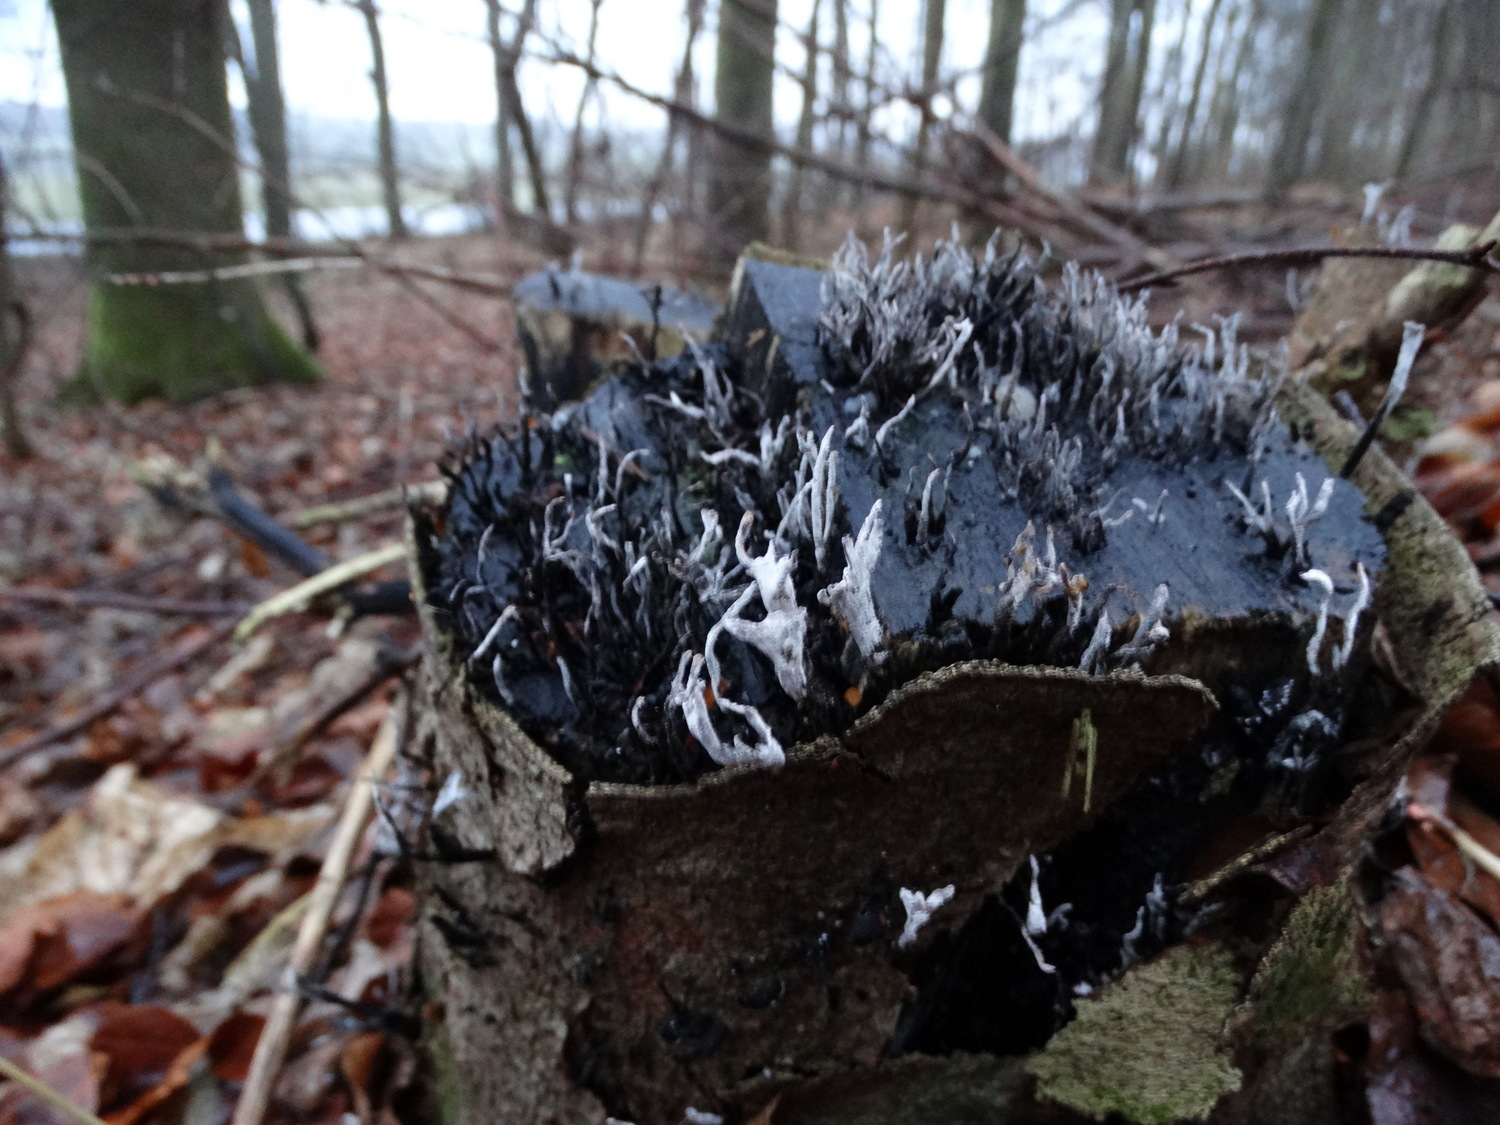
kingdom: Fungi
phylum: Ascomycota
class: Sordariomycetes
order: Xylariales
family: Xylariaceae
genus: Xylaria
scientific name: Xylaria hypoxylon
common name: grenet stødsvamp
